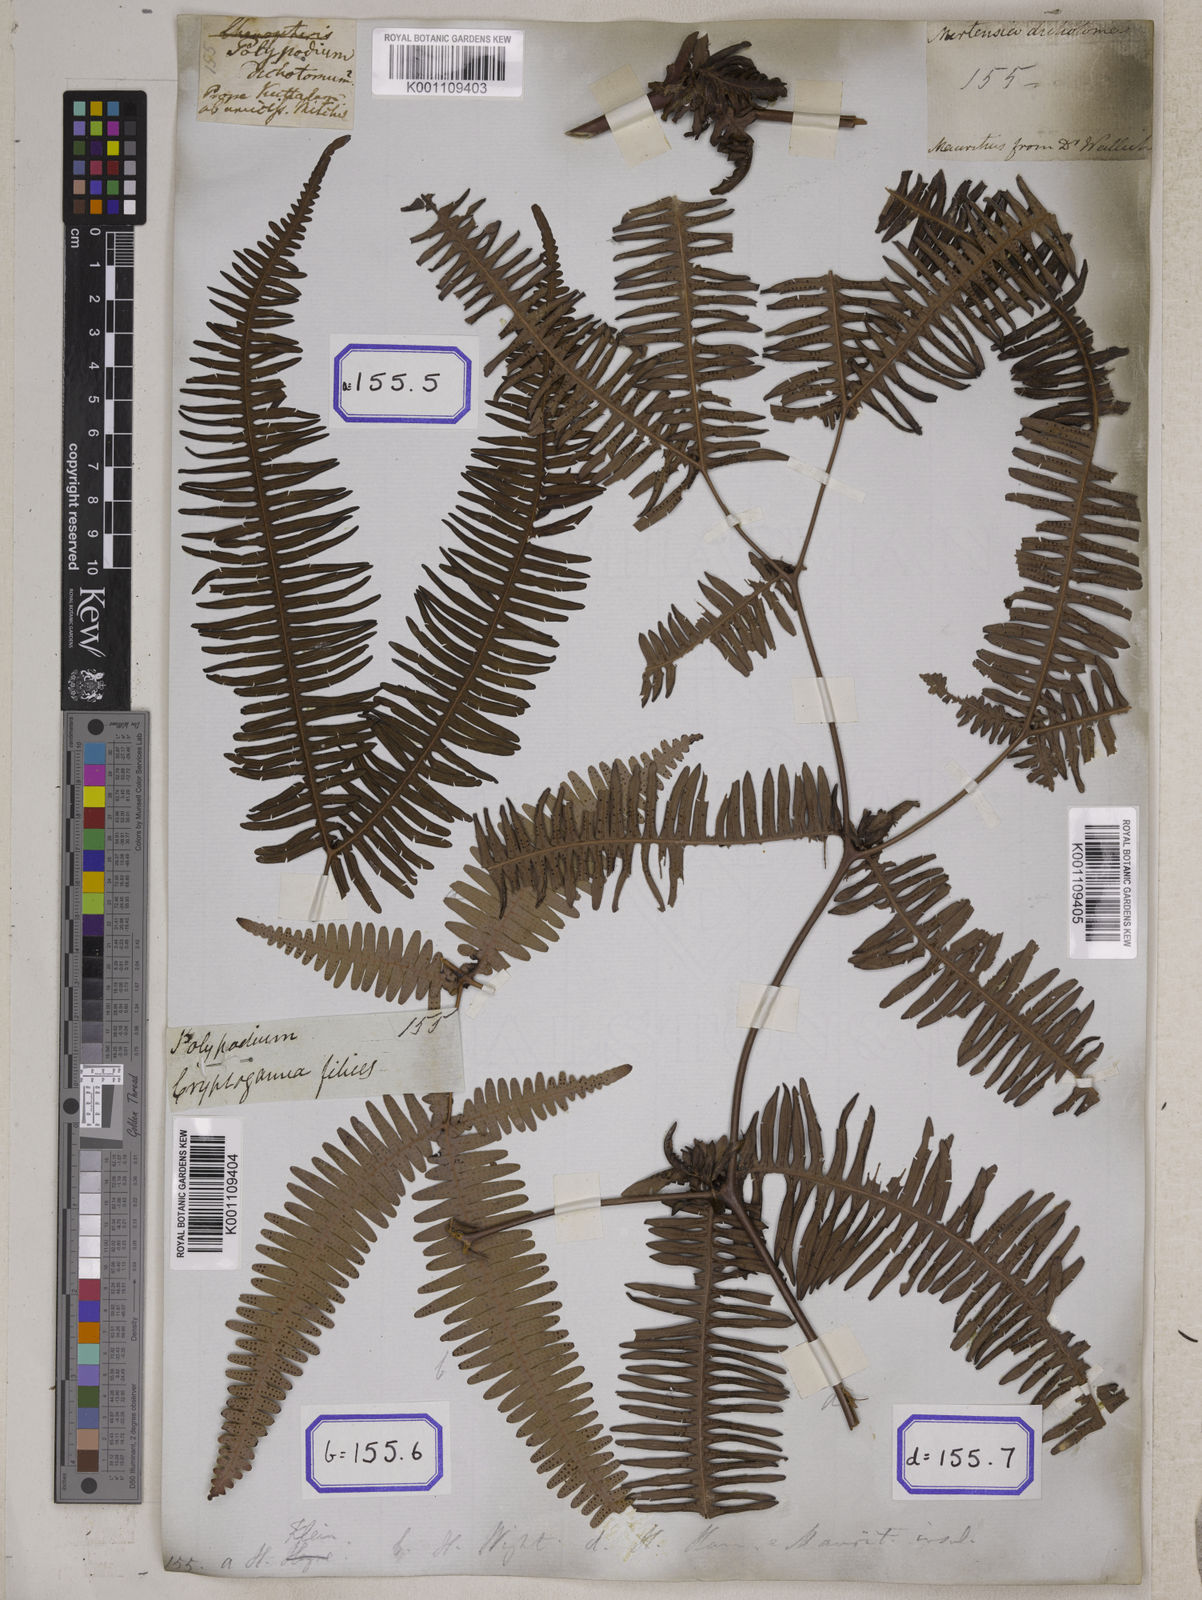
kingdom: Plantae
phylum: Tracheophyta
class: Polypodiopsida
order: Gleicheniales
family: Gleicheniaceae
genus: Dicranopteris
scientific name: Dicranopteris linearis
